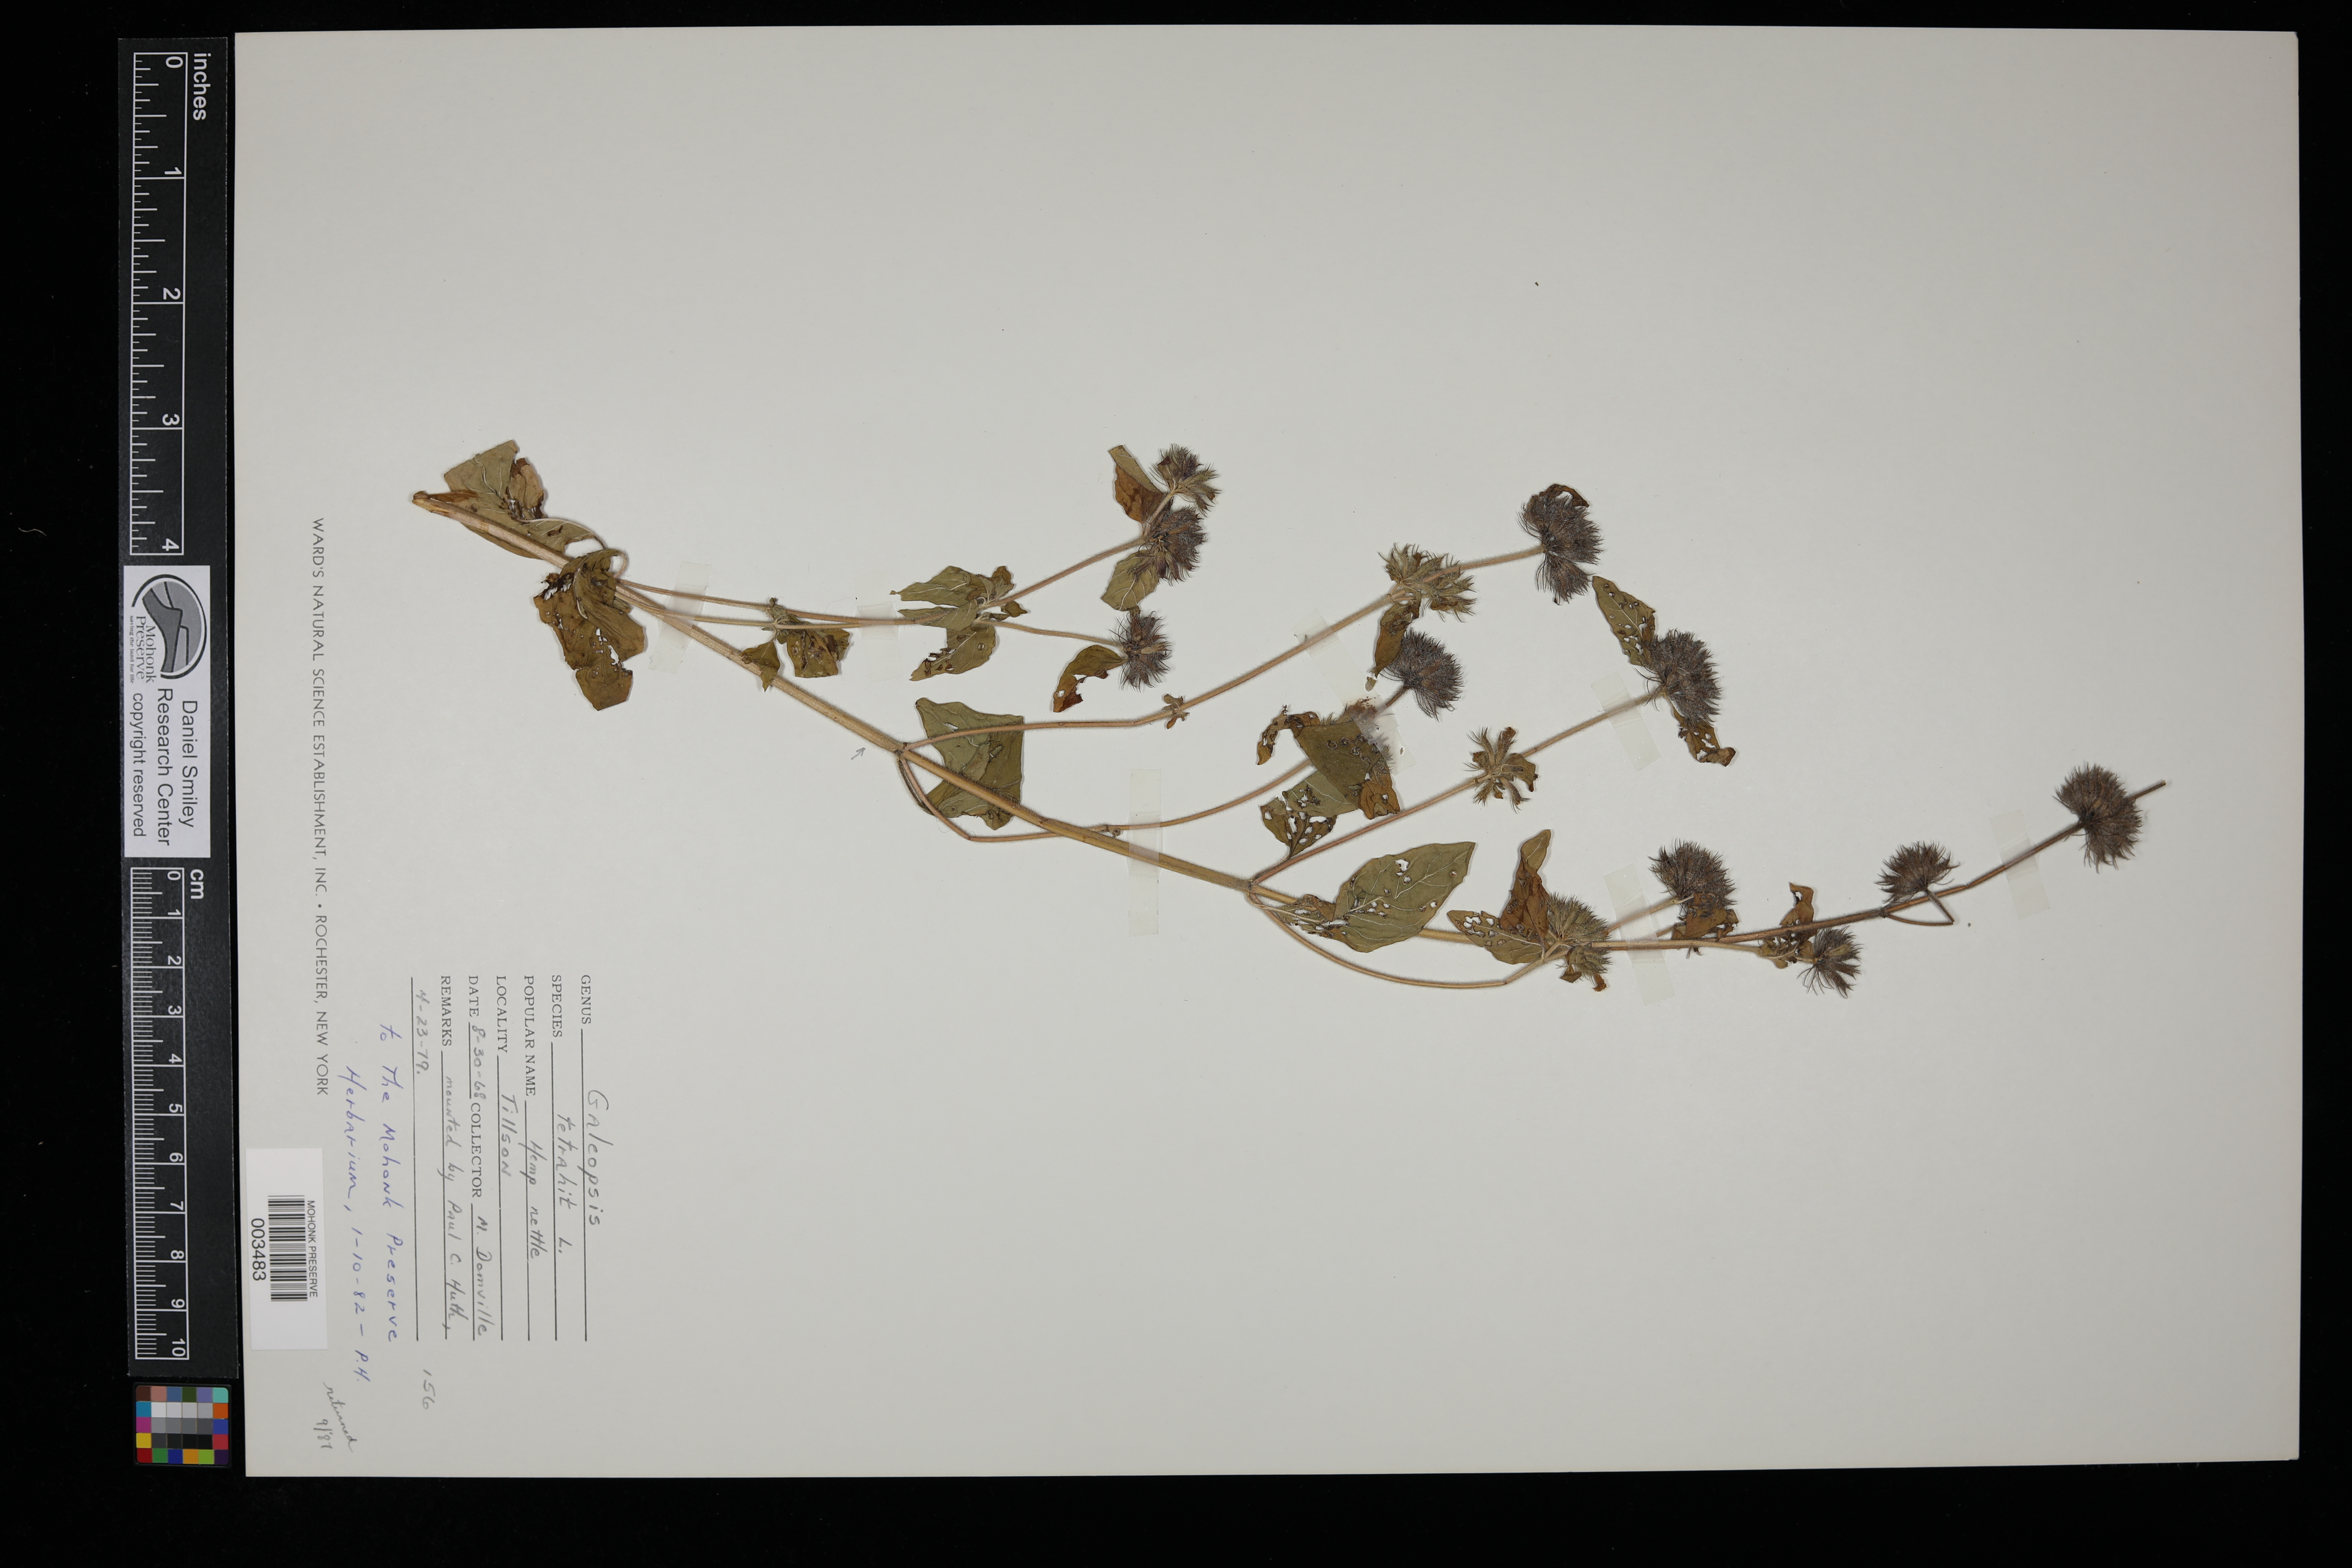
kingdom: Plantae
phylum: Tracheophyta
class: Magnoliopsida
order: Lamiales
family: Lamiaceae
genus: Galeopsis
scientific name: Galeopsis tetrahit
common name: Common hemp-nettle
